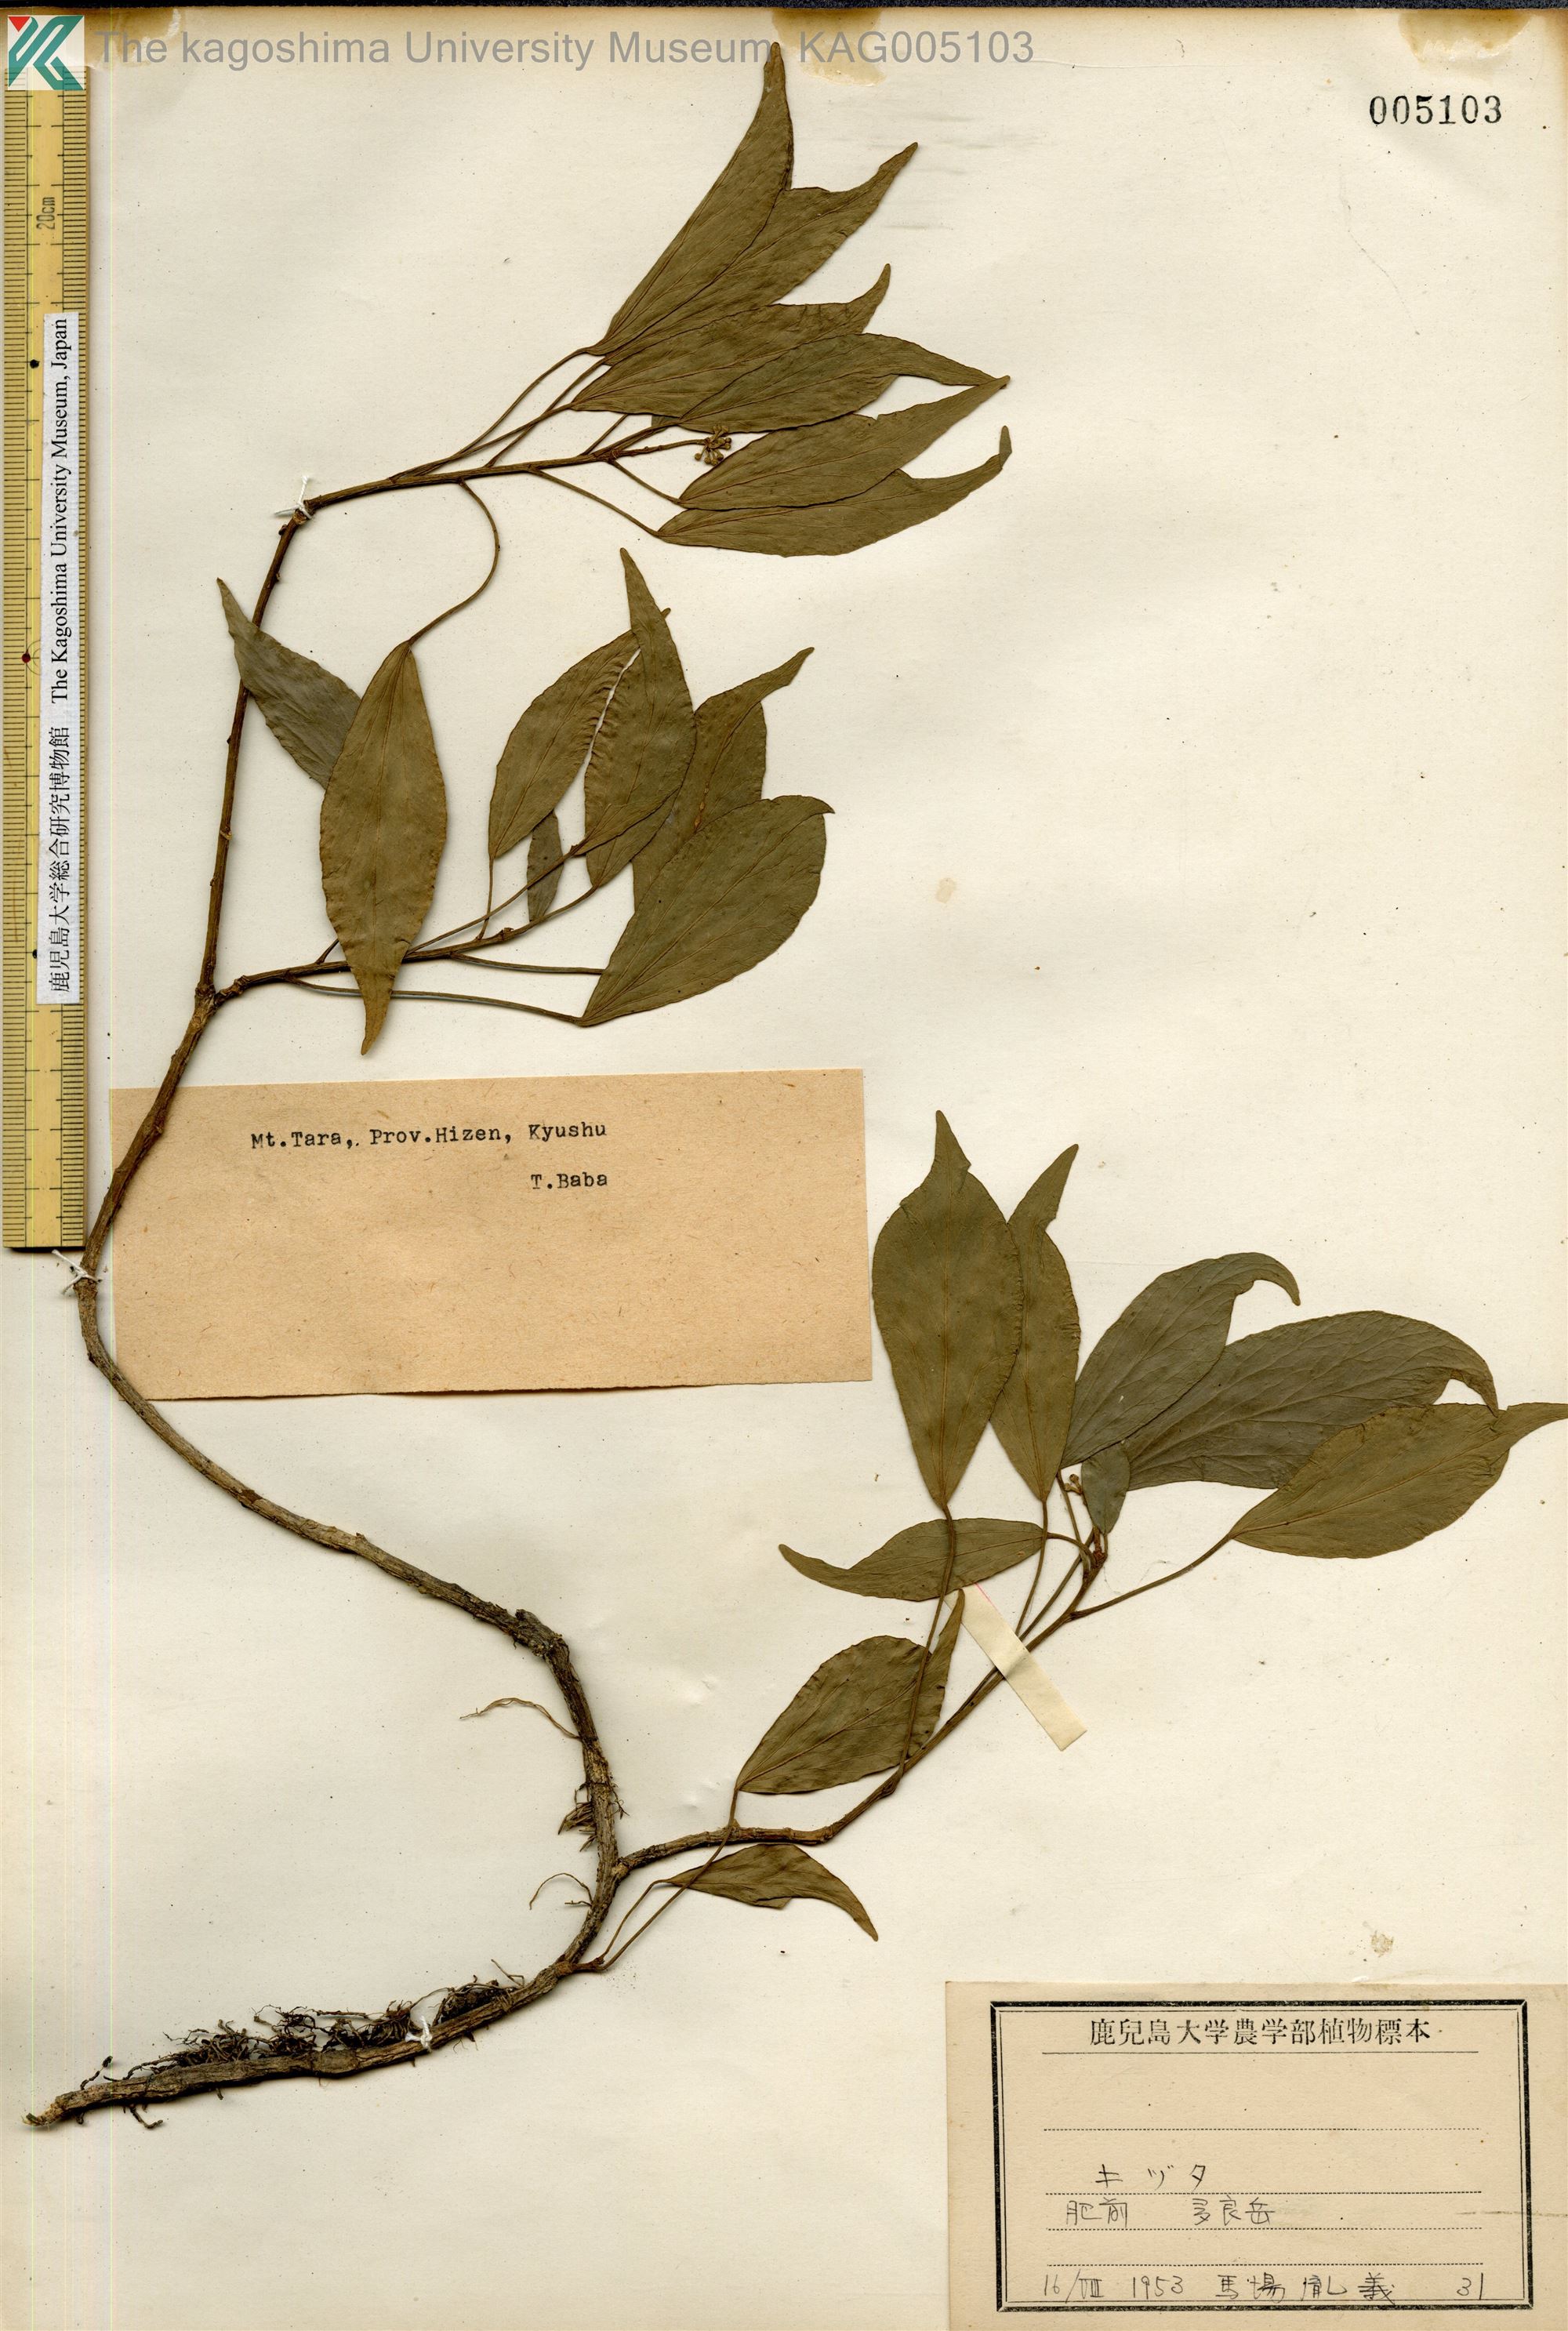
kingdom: Plantae
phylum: Tracheophyta
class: Magnoliopsida
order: Apiales
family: Araliaceae
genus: Hedera
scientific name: Hedera rhombea
